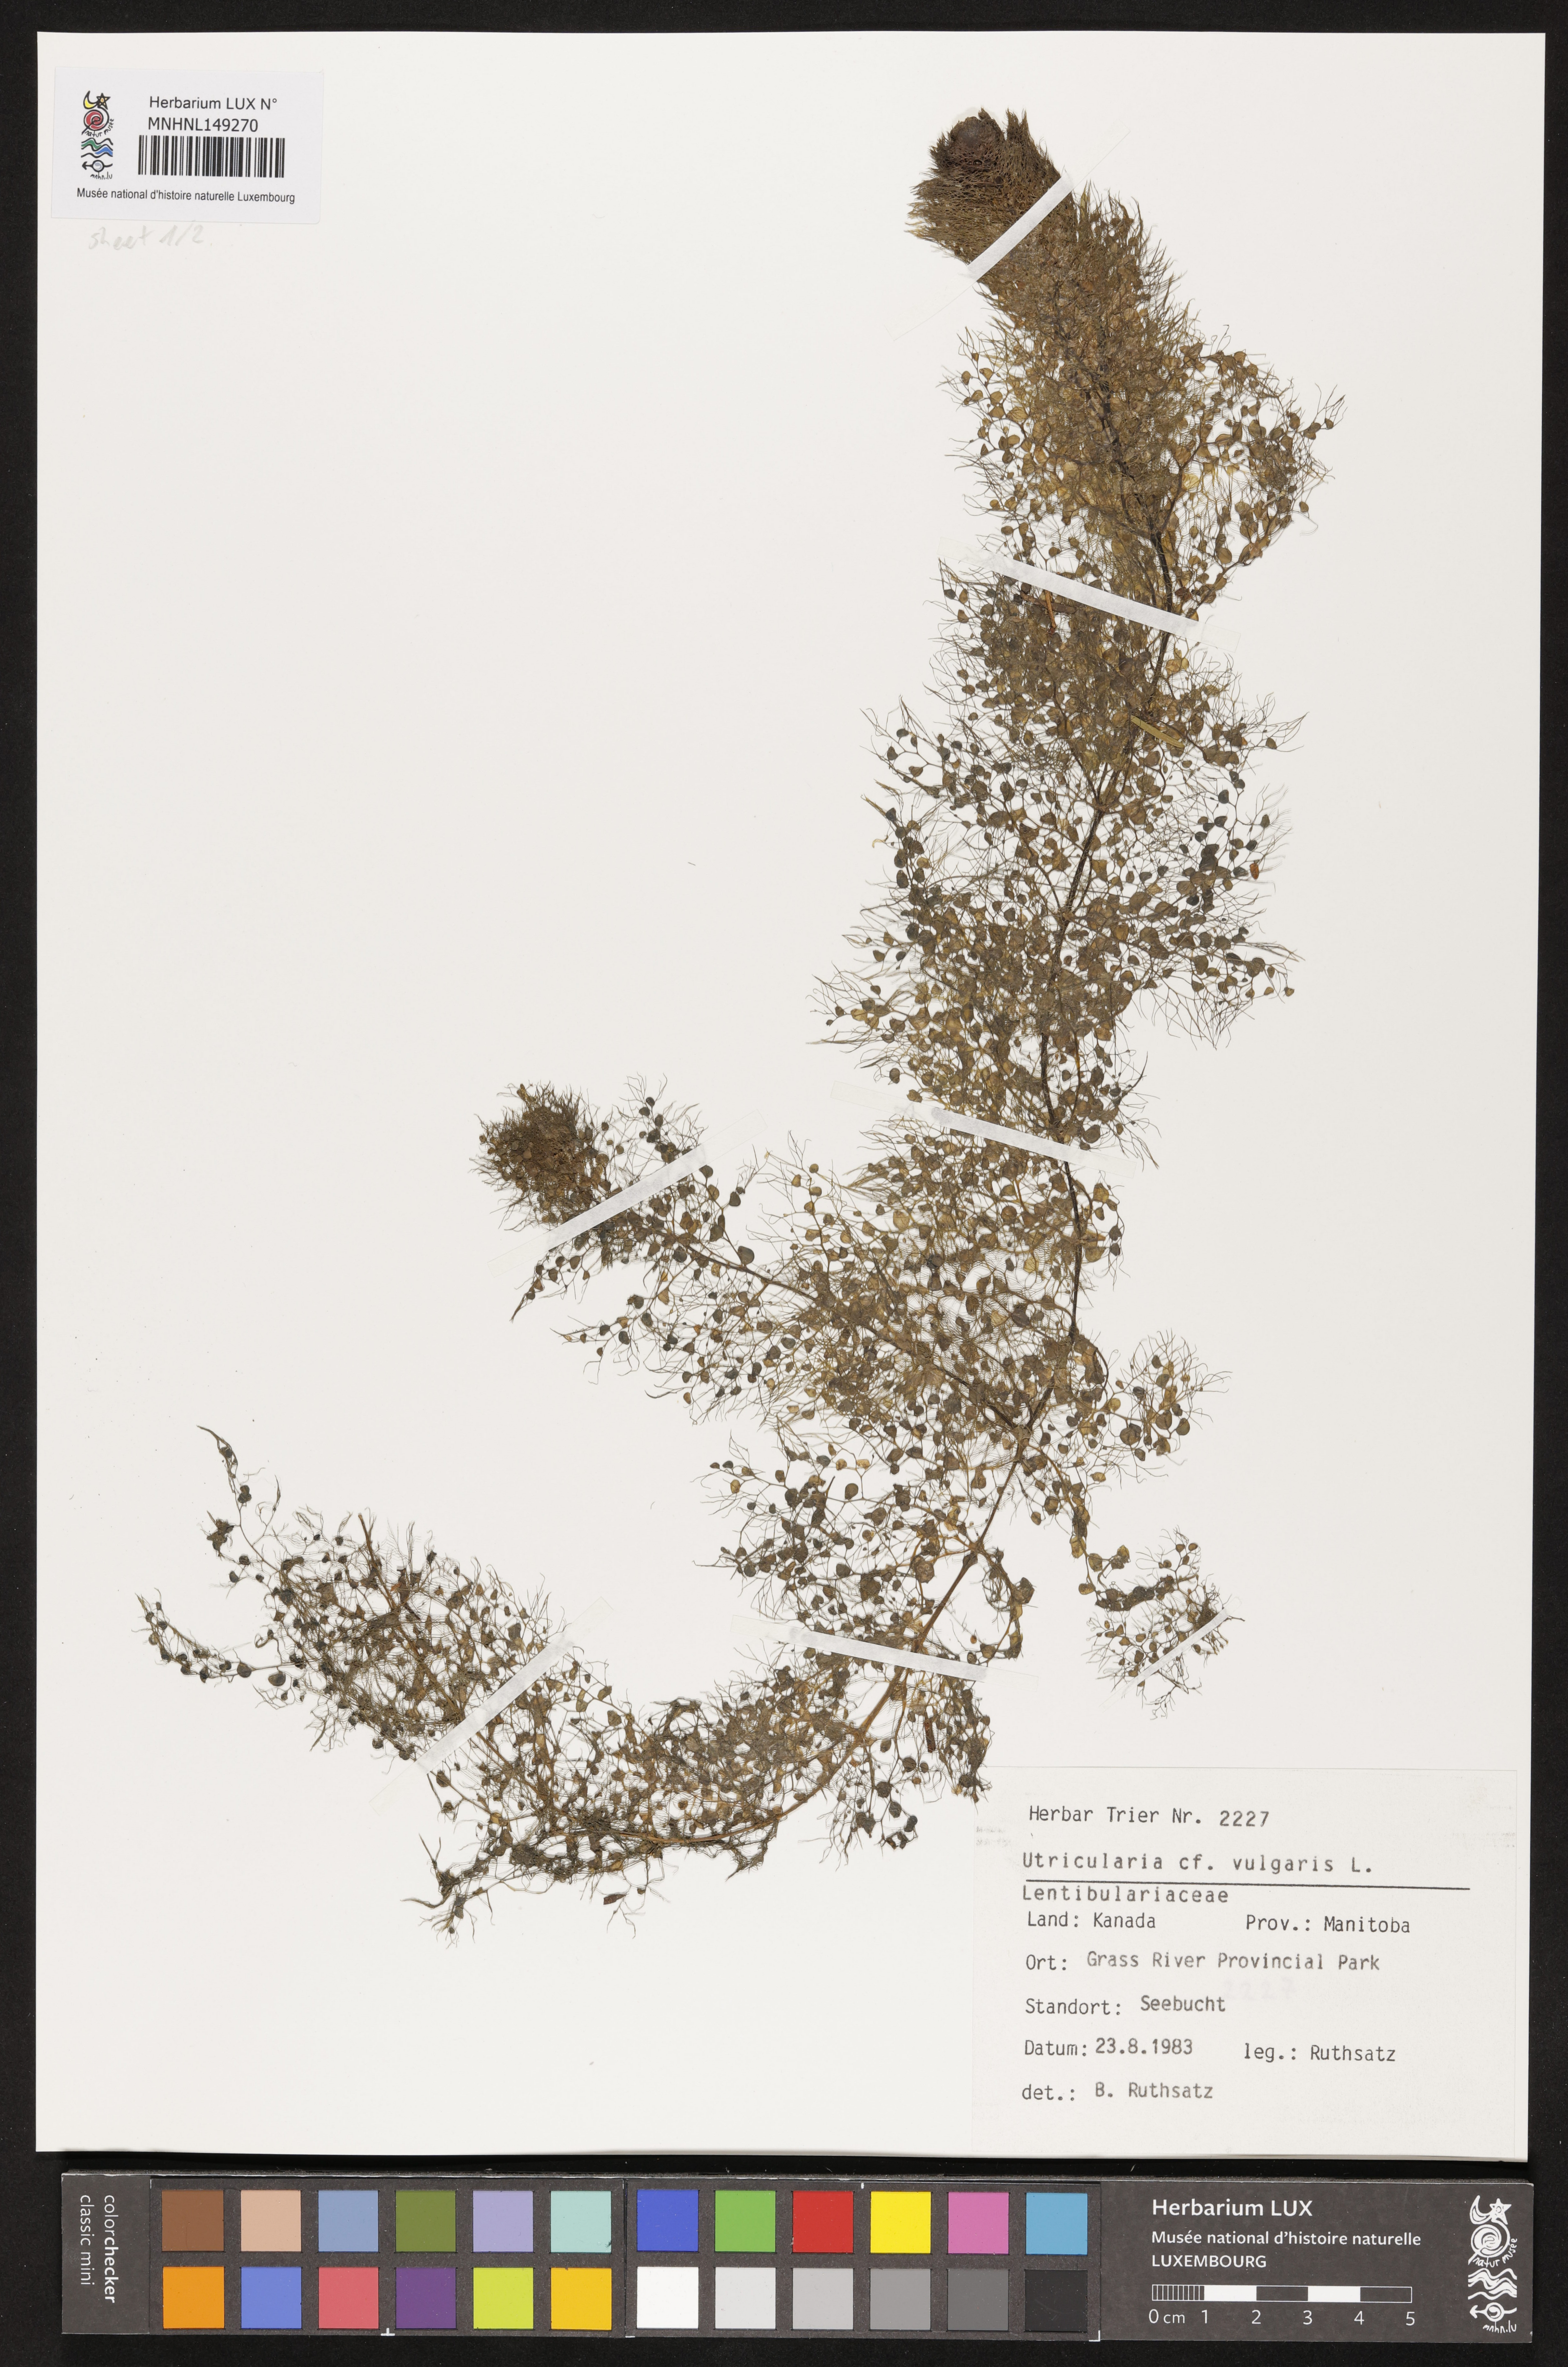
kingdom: Plantae
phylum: Tracheophyta
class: Magnoliopsida
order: Lamiales
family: Lentibulariaceae
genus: Utricularia
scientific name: Utricularia vulgaris
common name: Greater bladderwort
